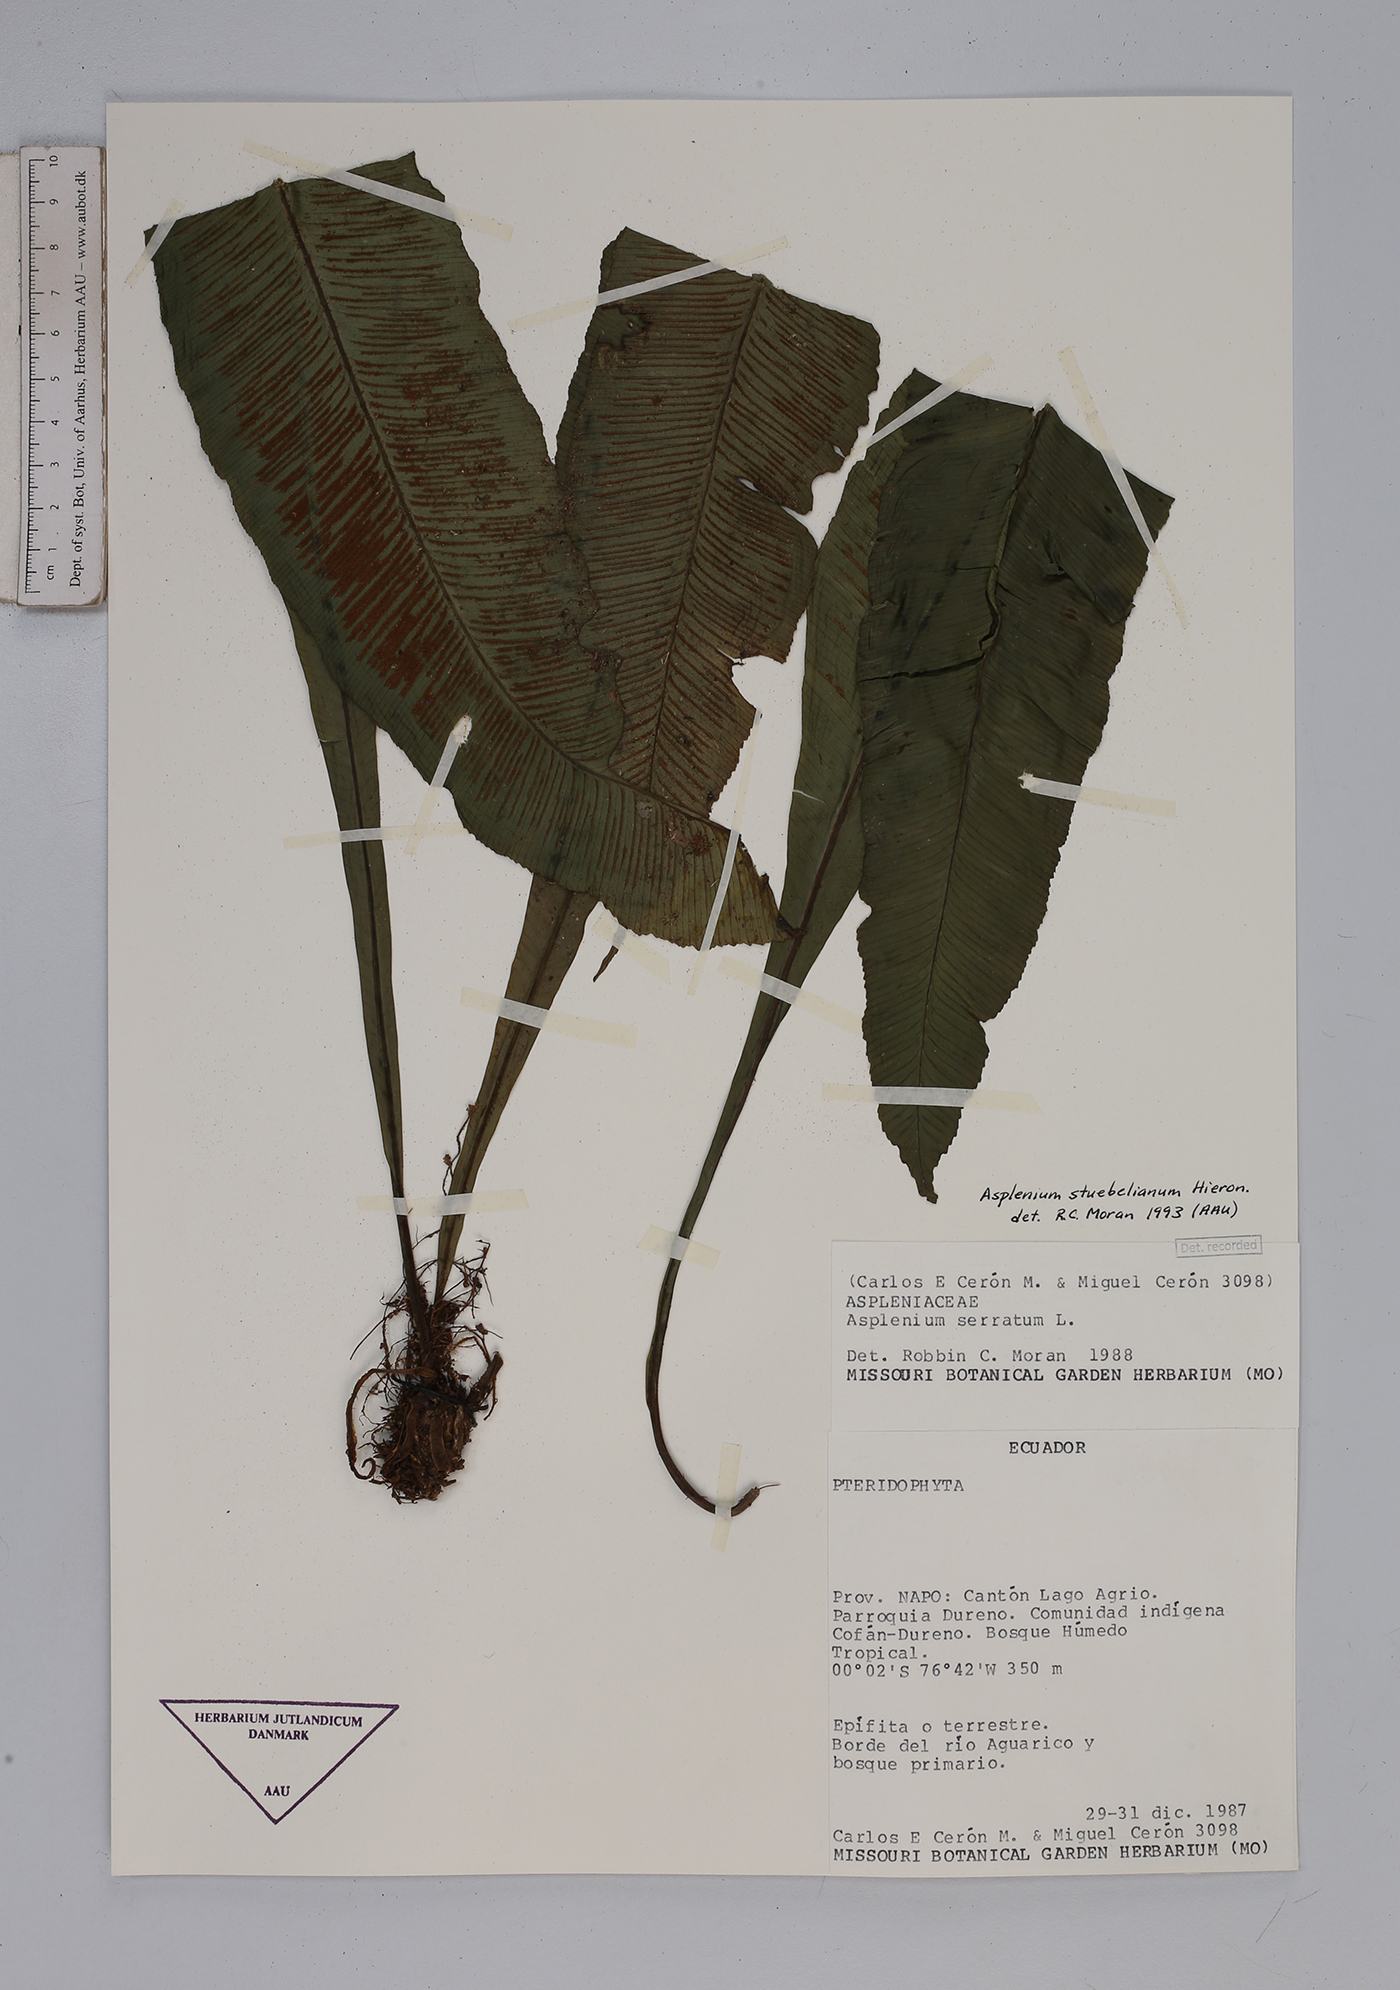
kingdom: Plantae
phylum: Tracheophyta
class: Polypodiopsida
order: Polypodiales
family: Aspleniaceae
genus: Asplenium
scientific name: Asplenium stuebelianum
